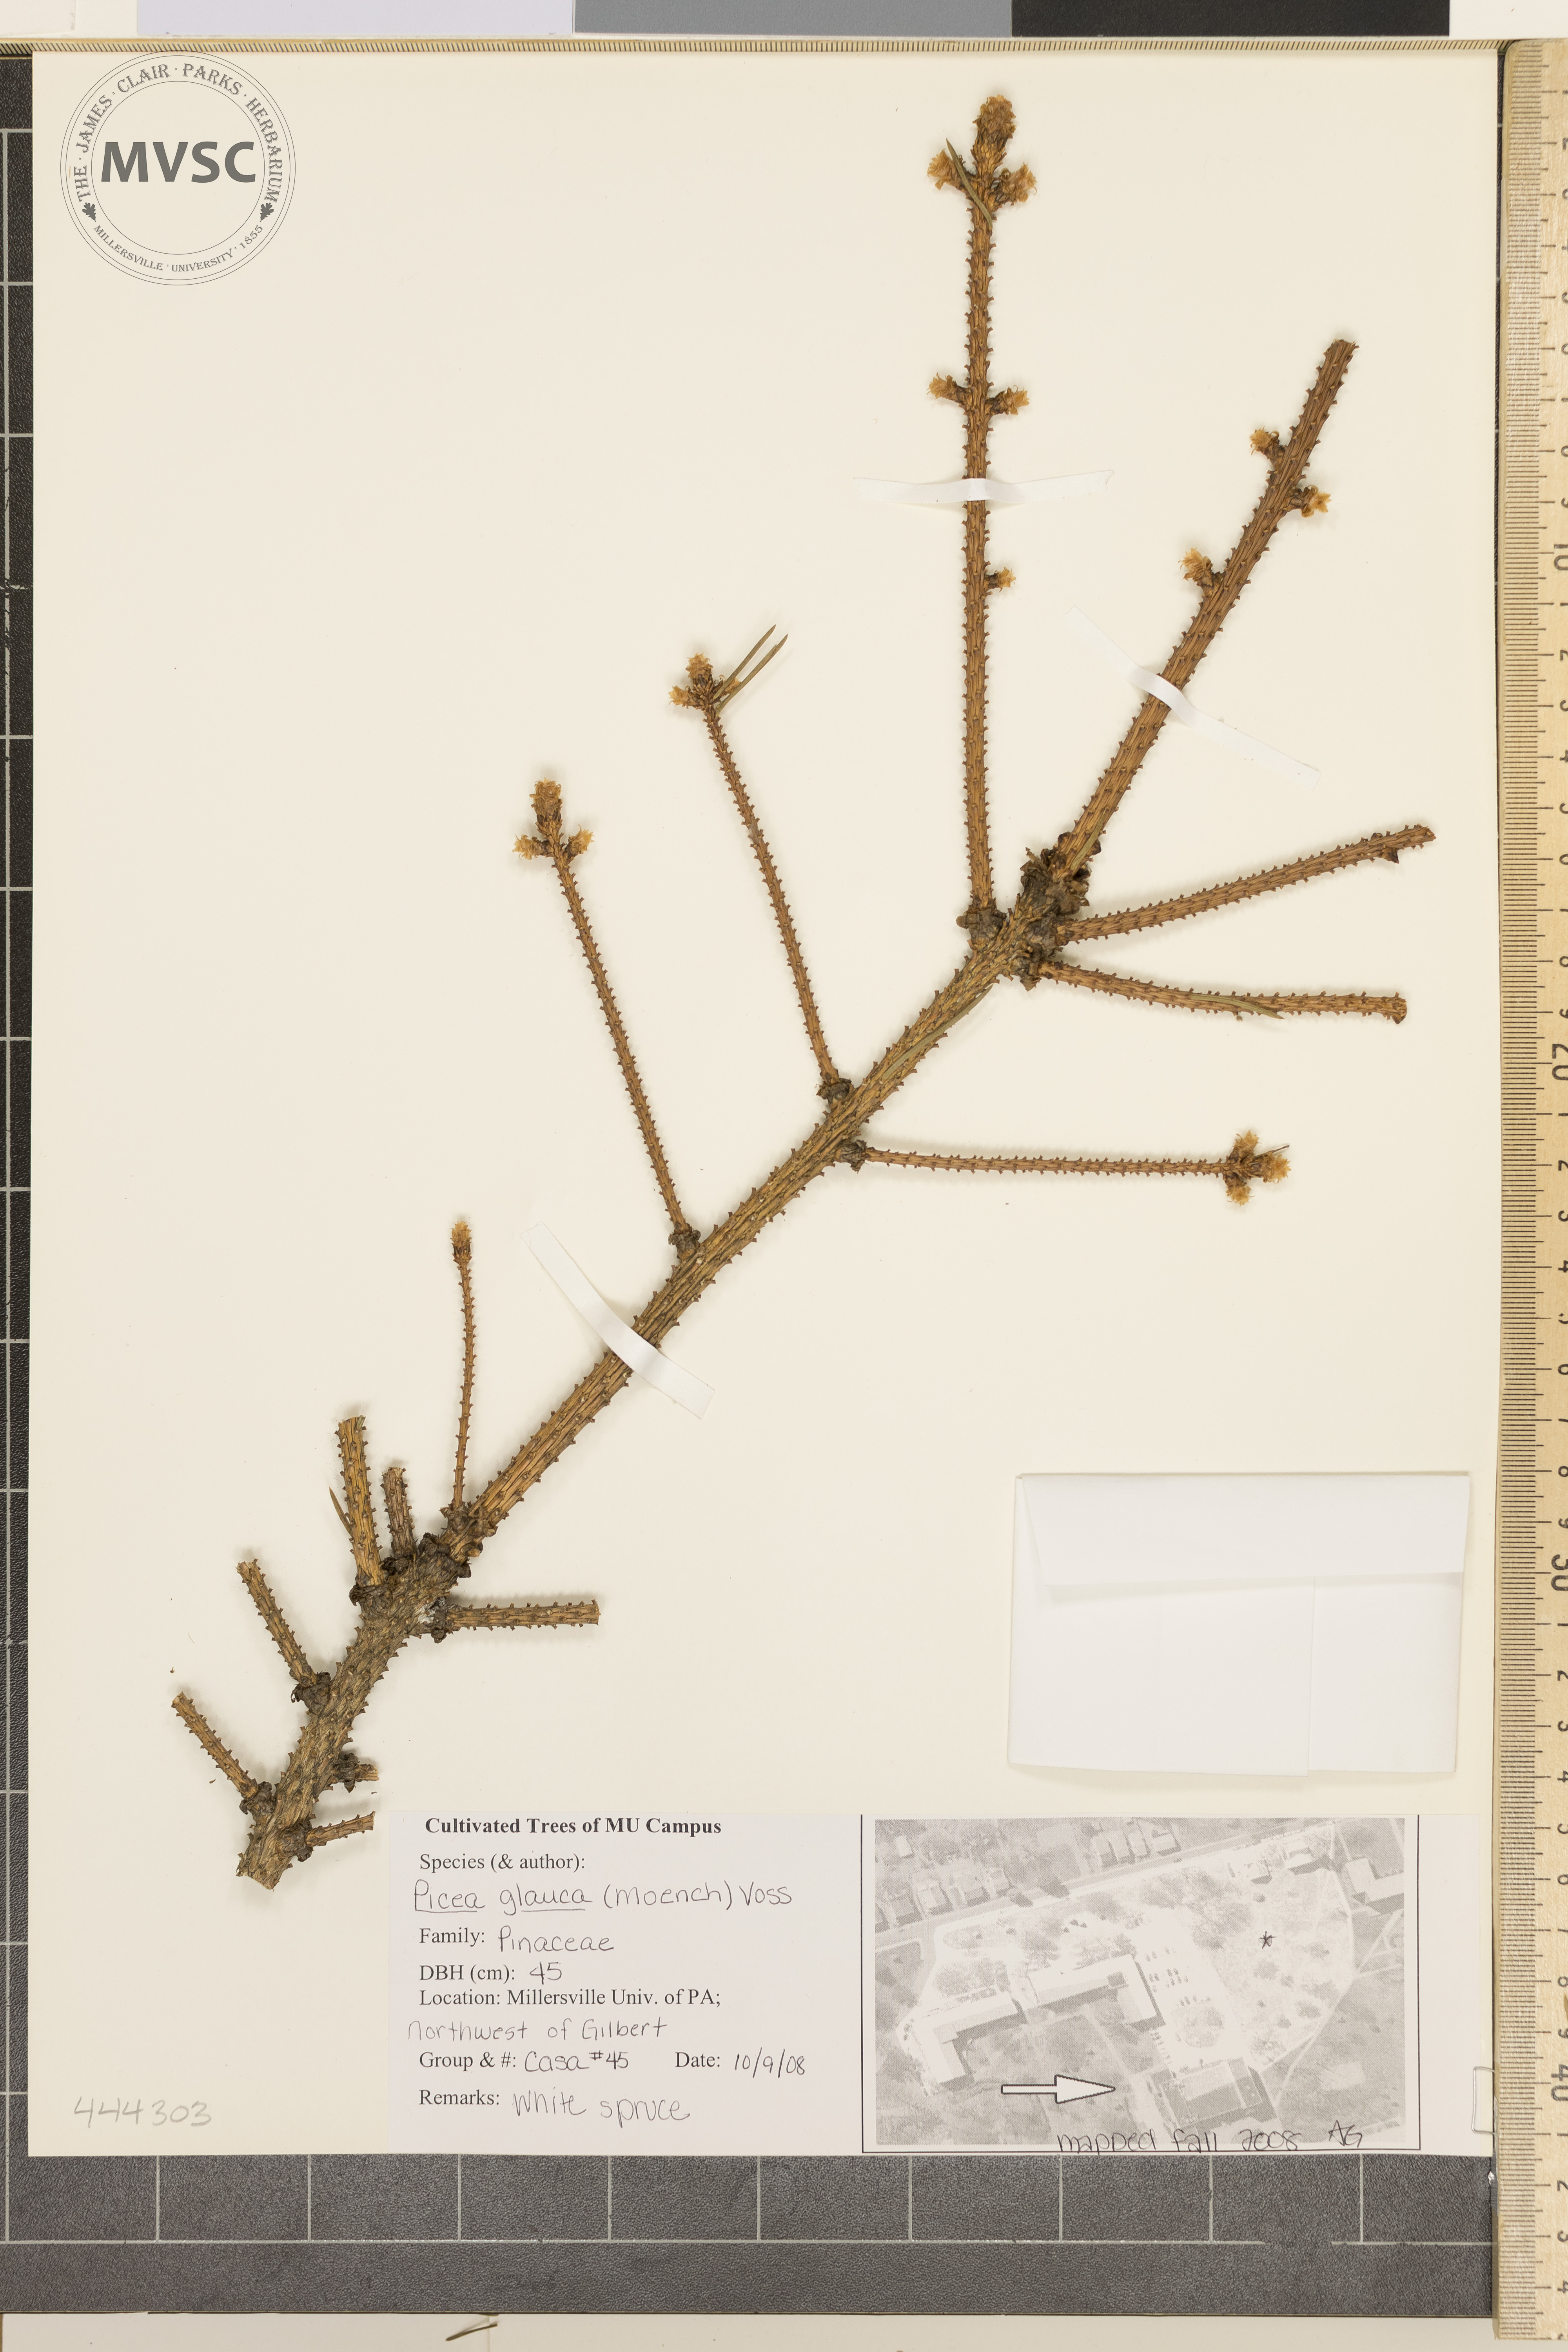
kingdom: Plantae
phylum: Tracheophyta
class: Pinopsida
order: Pinales
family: Pinaceae
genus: Picea
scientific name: Picea glauca
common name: White Spruce
